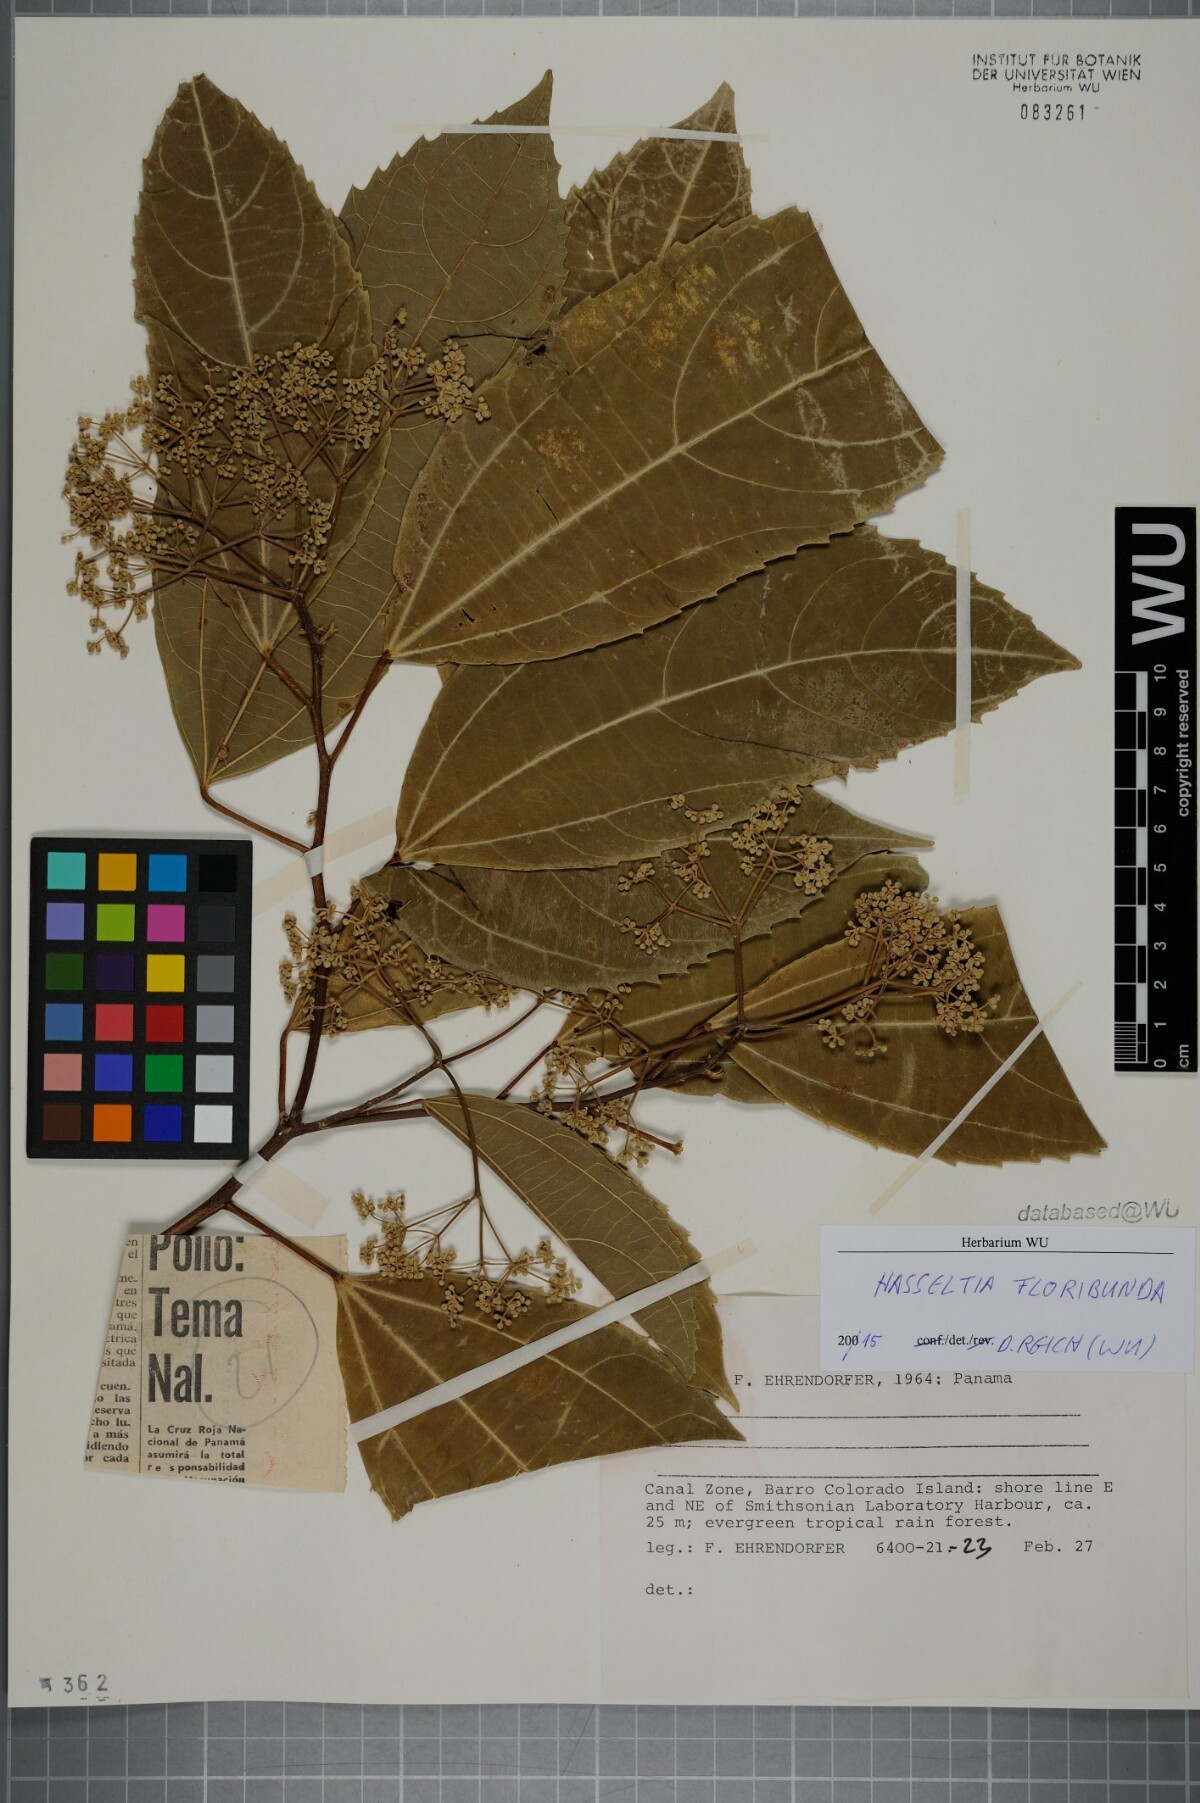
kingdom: Plantae
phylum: Tracheophyta
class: Magnoliopsida
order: Malpighiales
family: Salicaceae
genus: Hasseltia
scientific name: Hasseltia floribunda
